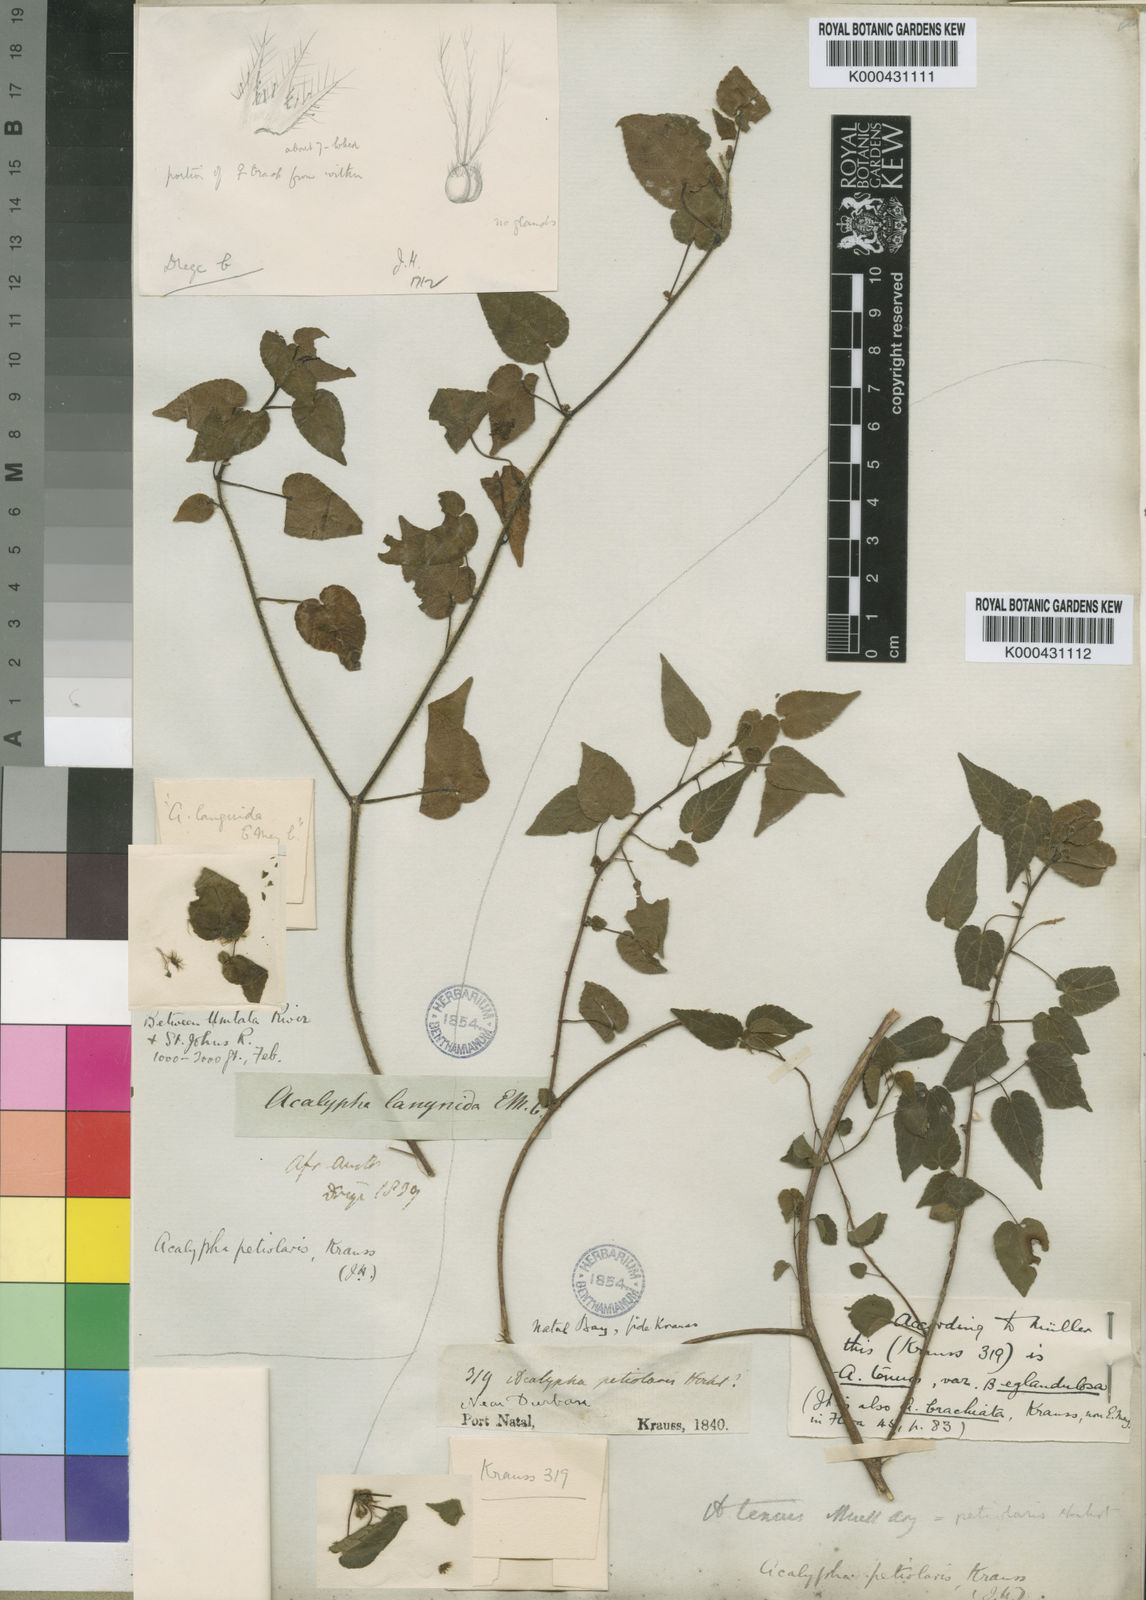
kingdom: Plantae
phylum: Tracheophyta
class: Magnoliopsida
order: Malpighiales
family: Euphorbiaceae
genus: Acalypha
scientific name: Acalypha petiolaris
